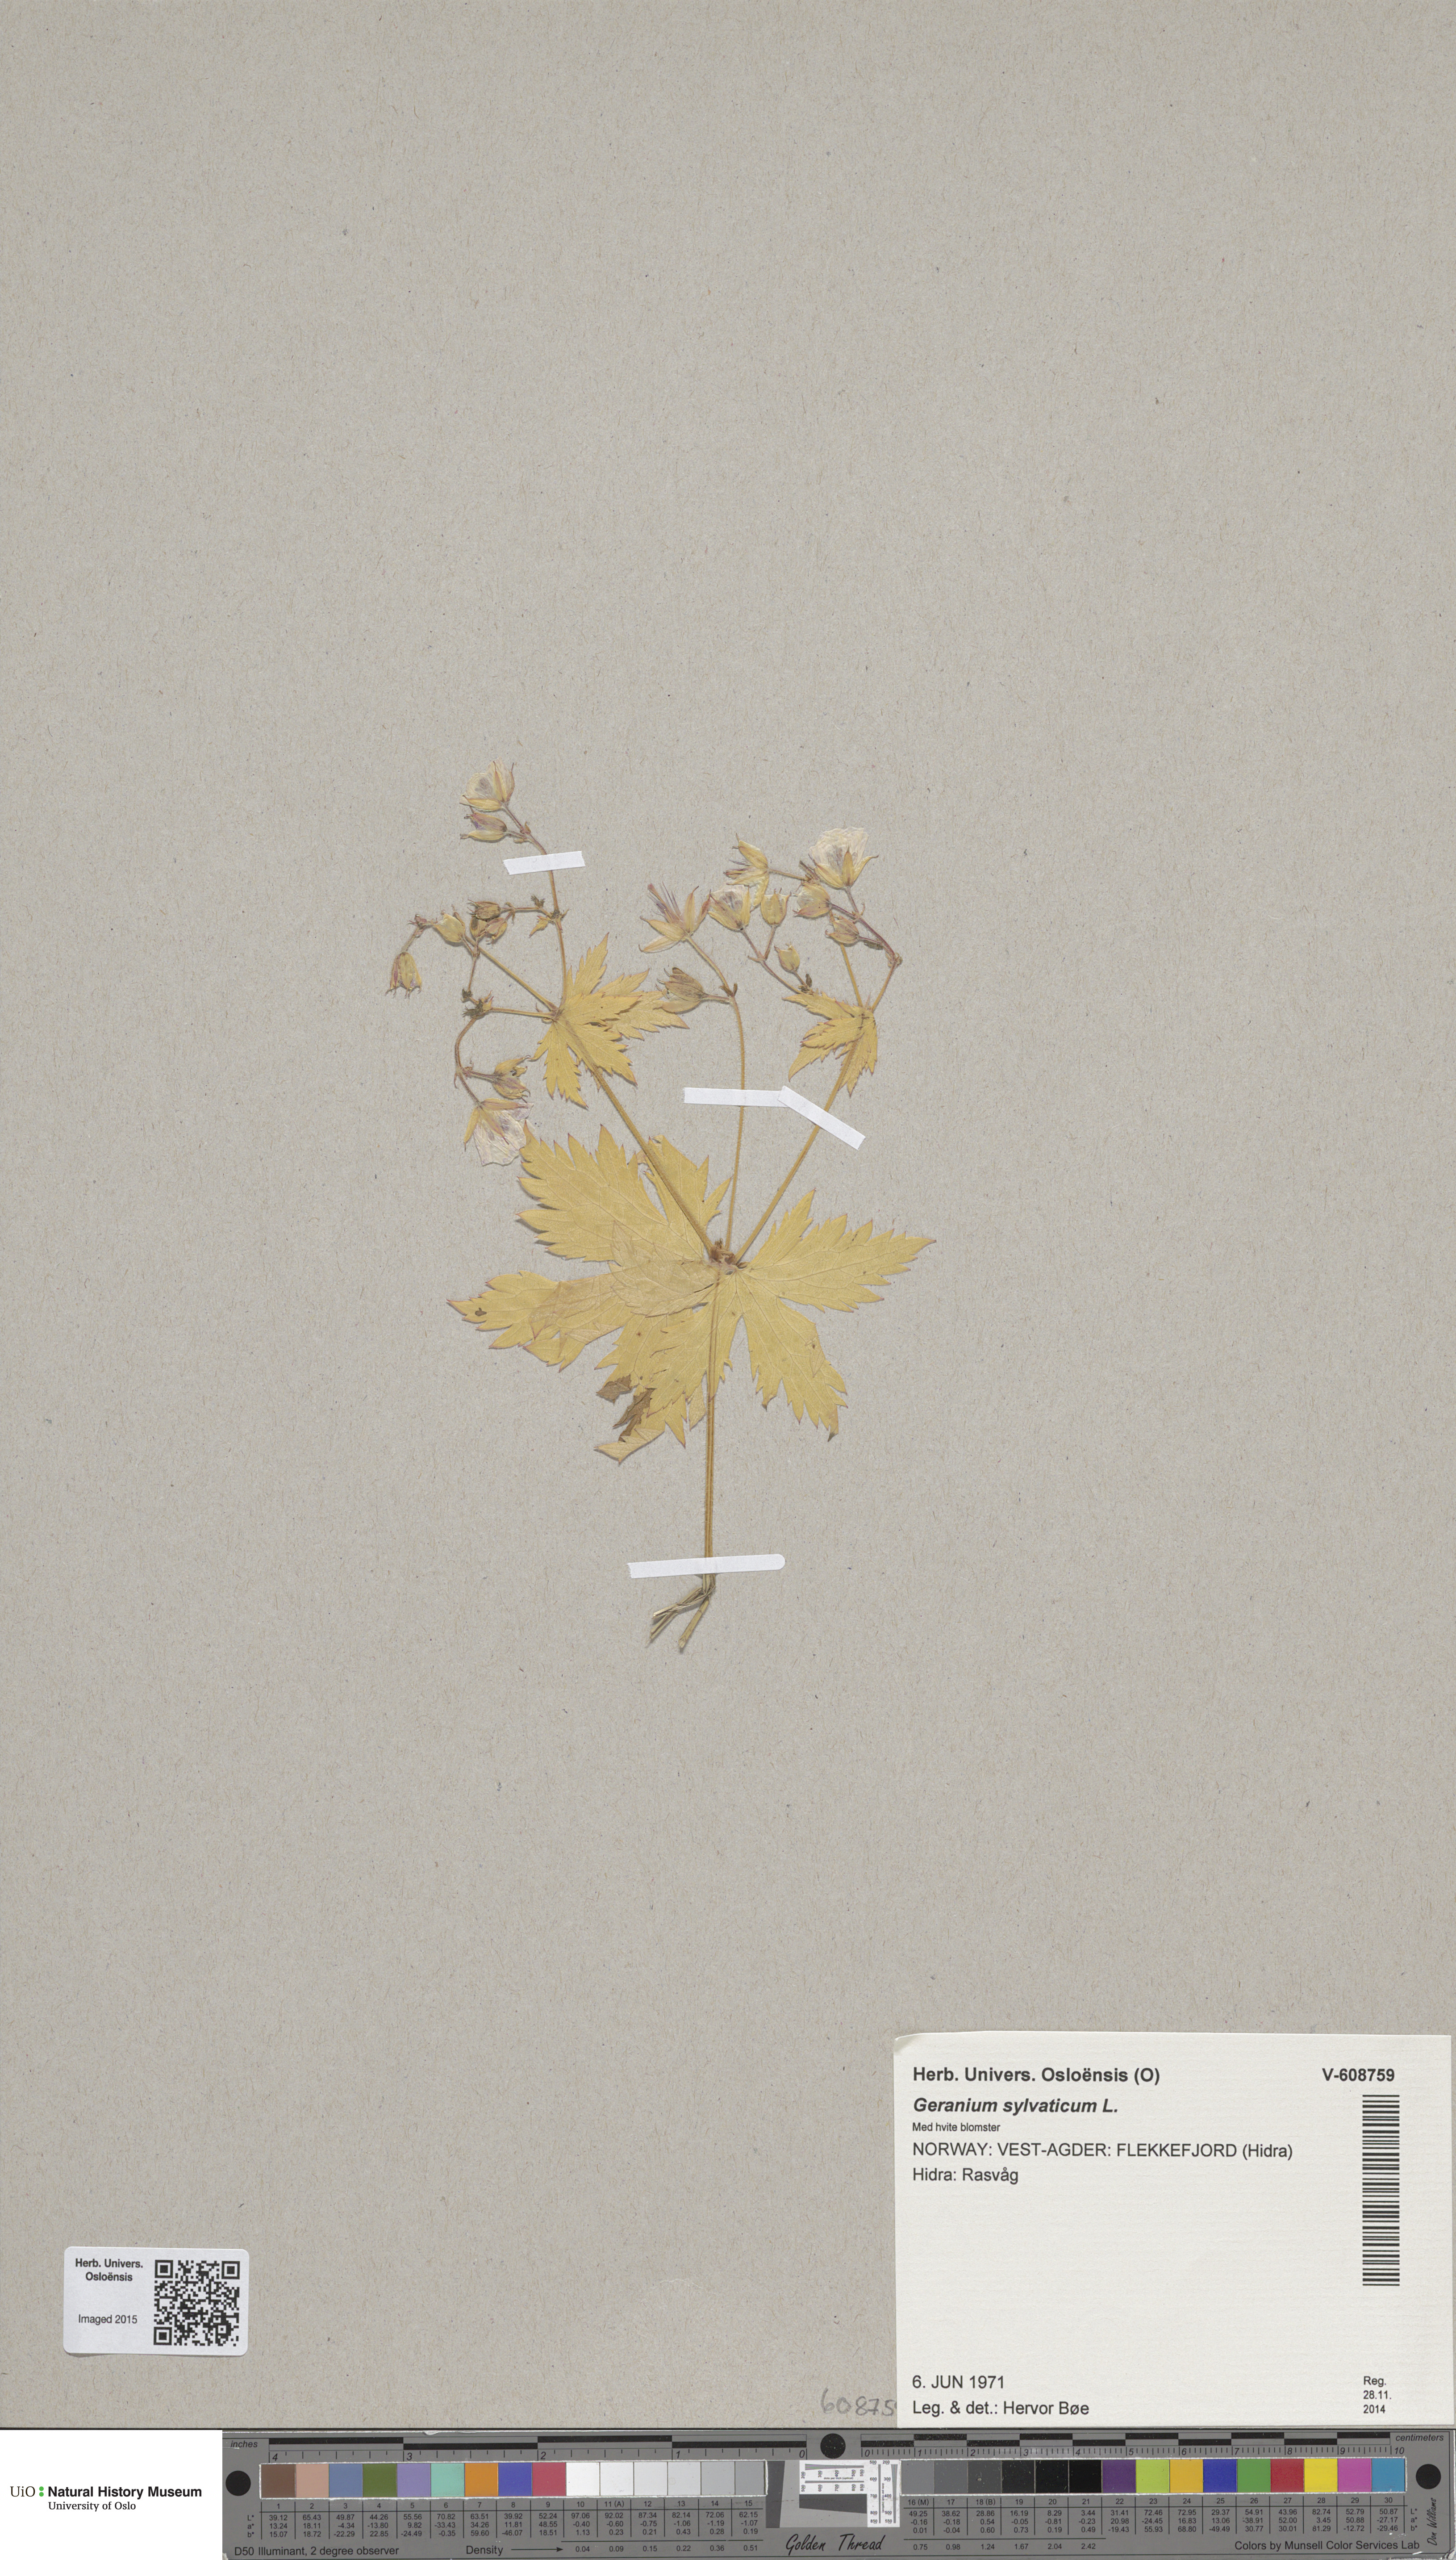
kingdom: Plantae
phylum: Tracheophyta
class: Magnoliopsida
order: Geraniales
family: Geraniaceae
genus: Geranium
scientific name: Geranium sylvaticum
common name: Wood crane's-bill
